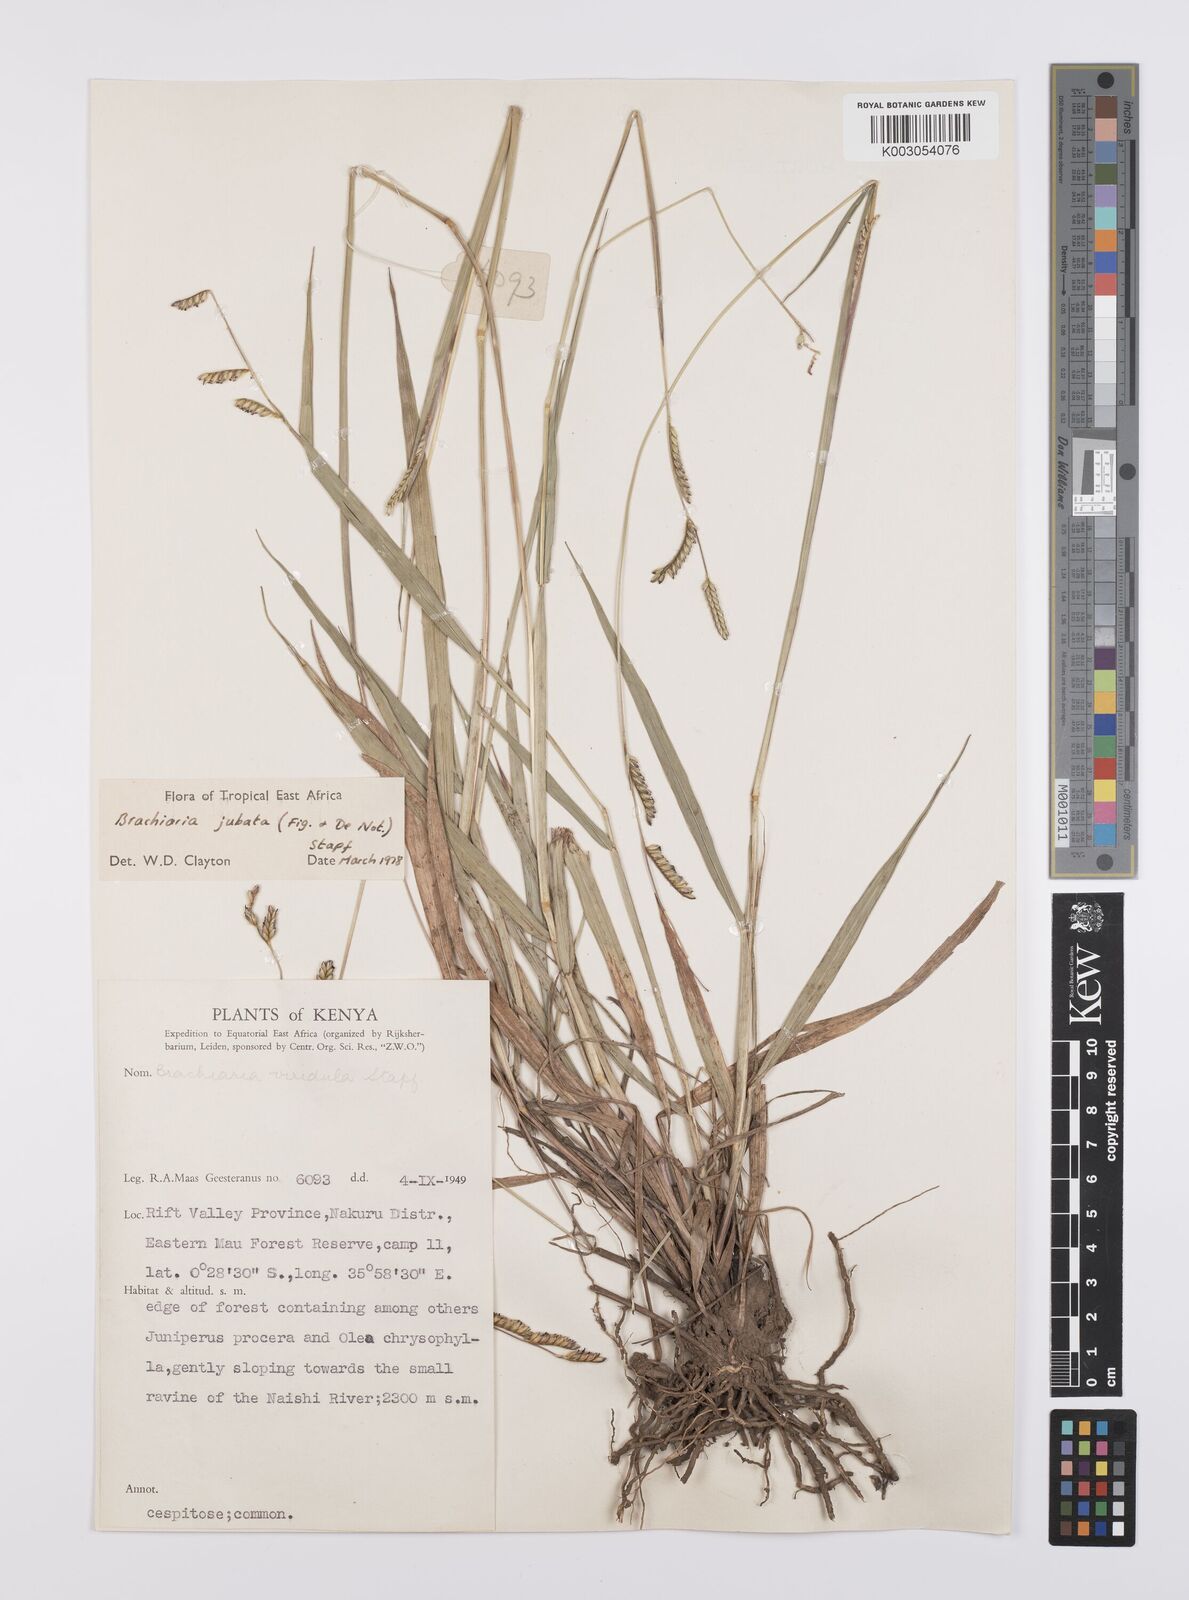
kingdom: Plantae
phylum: Tracheophyta
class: Liliopsida
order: Poales
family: Poaceae
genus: Urochloa
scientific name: Urochloa jubata
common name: Buffalograss
